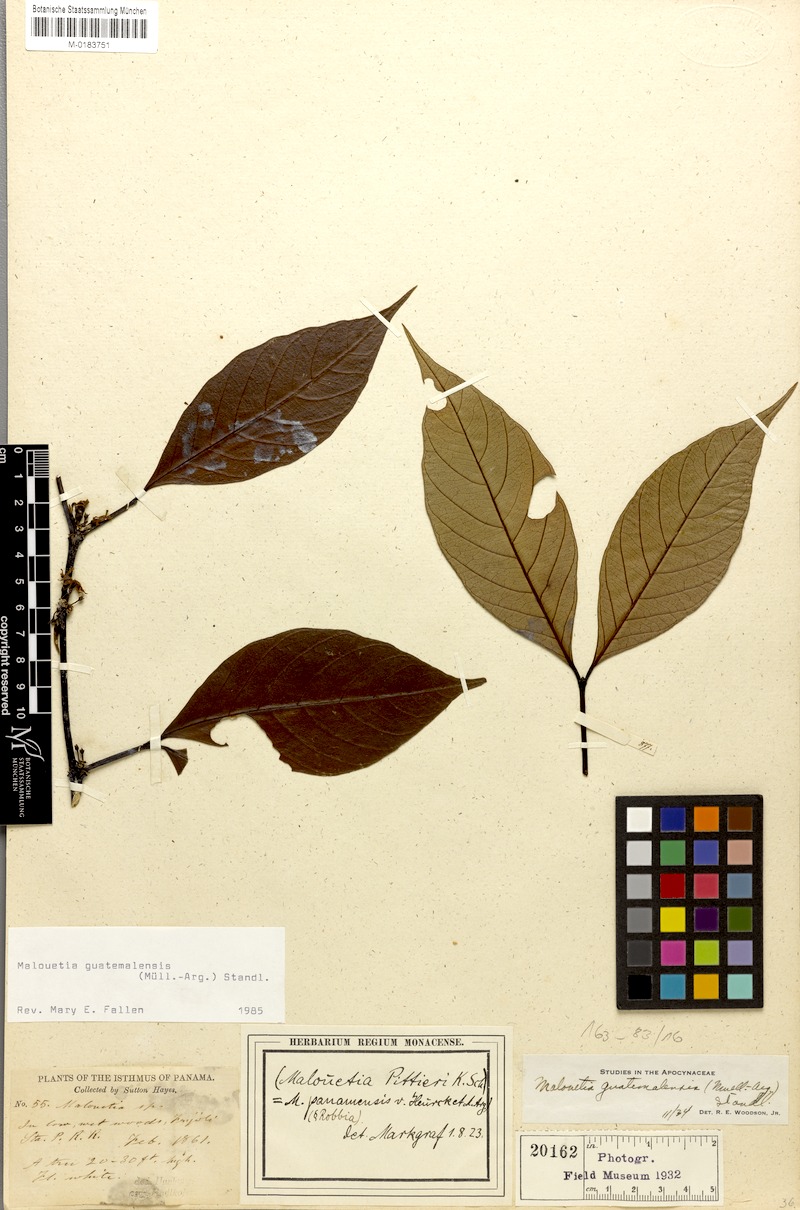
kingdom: Plantae
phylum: Tracheophyta
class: Magnoliopsida
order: Gentianales
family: Apocynaceae
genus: Malouetia
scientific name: Malouetia guatemalensis
